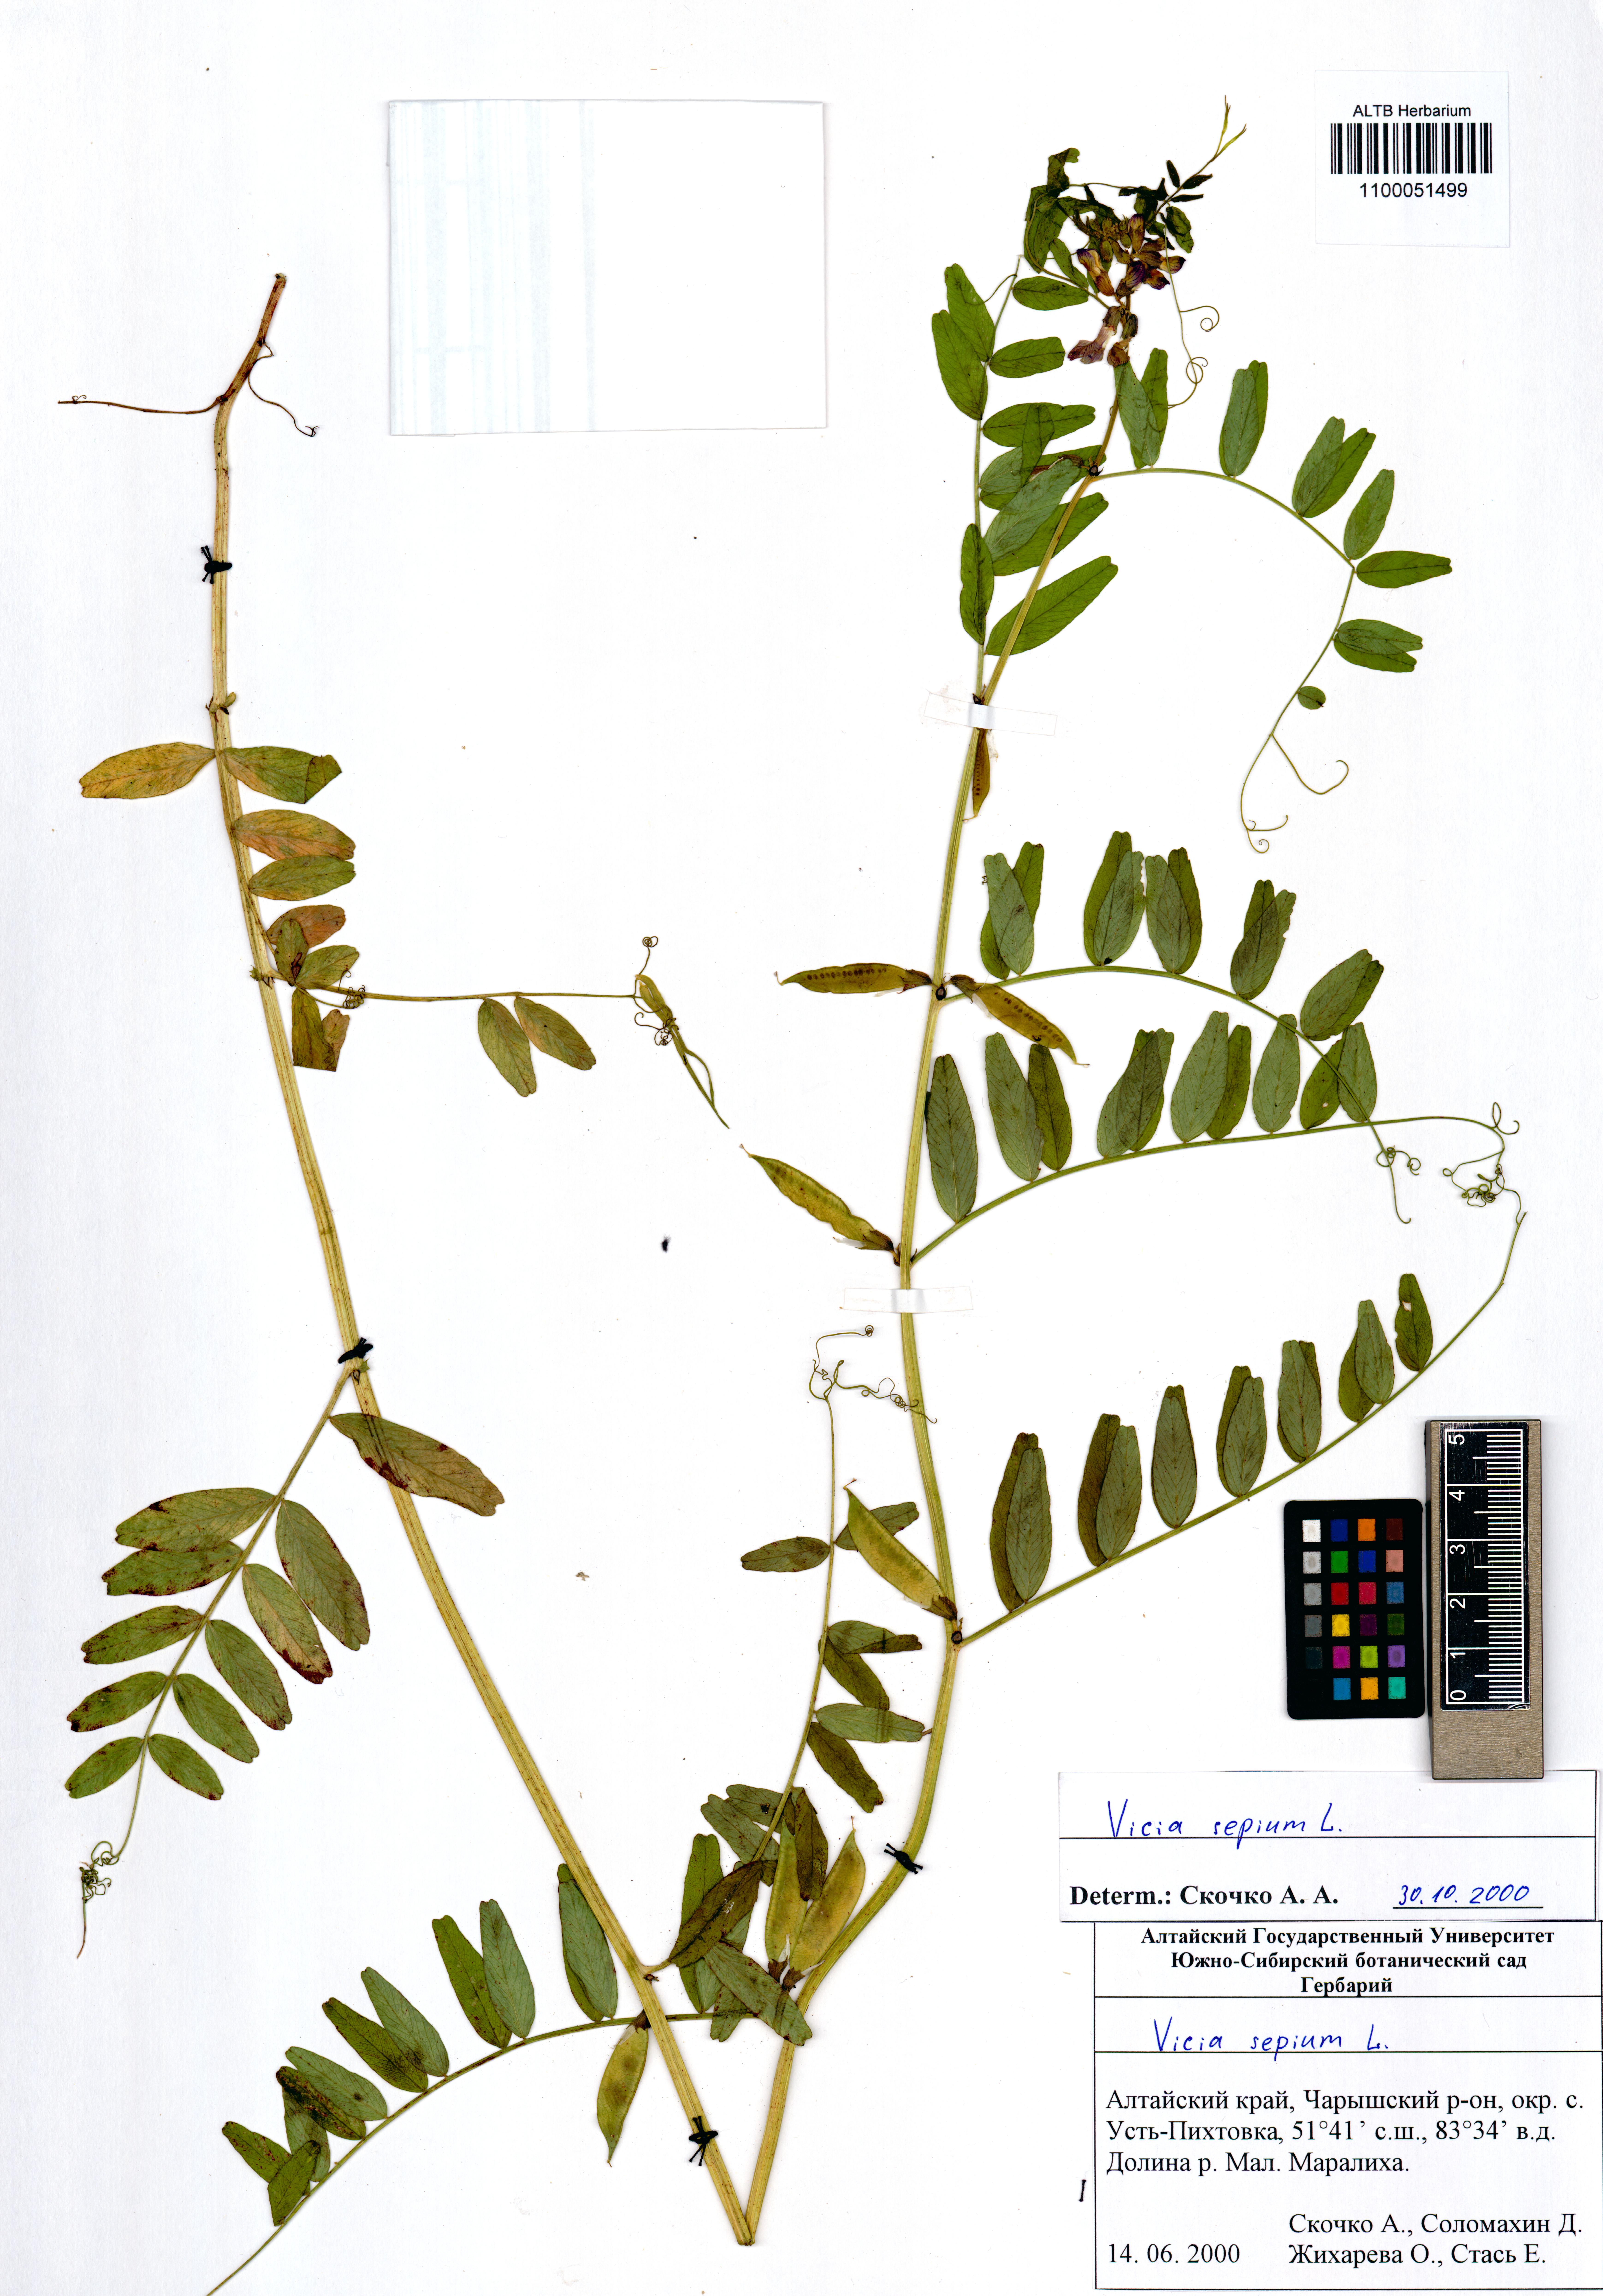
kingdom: Plantae
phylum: Tracheophyta
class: Magnoliopsida
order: Caryophyllales
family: Caryophyllaceae
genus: Silene
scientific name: Silene amoena
